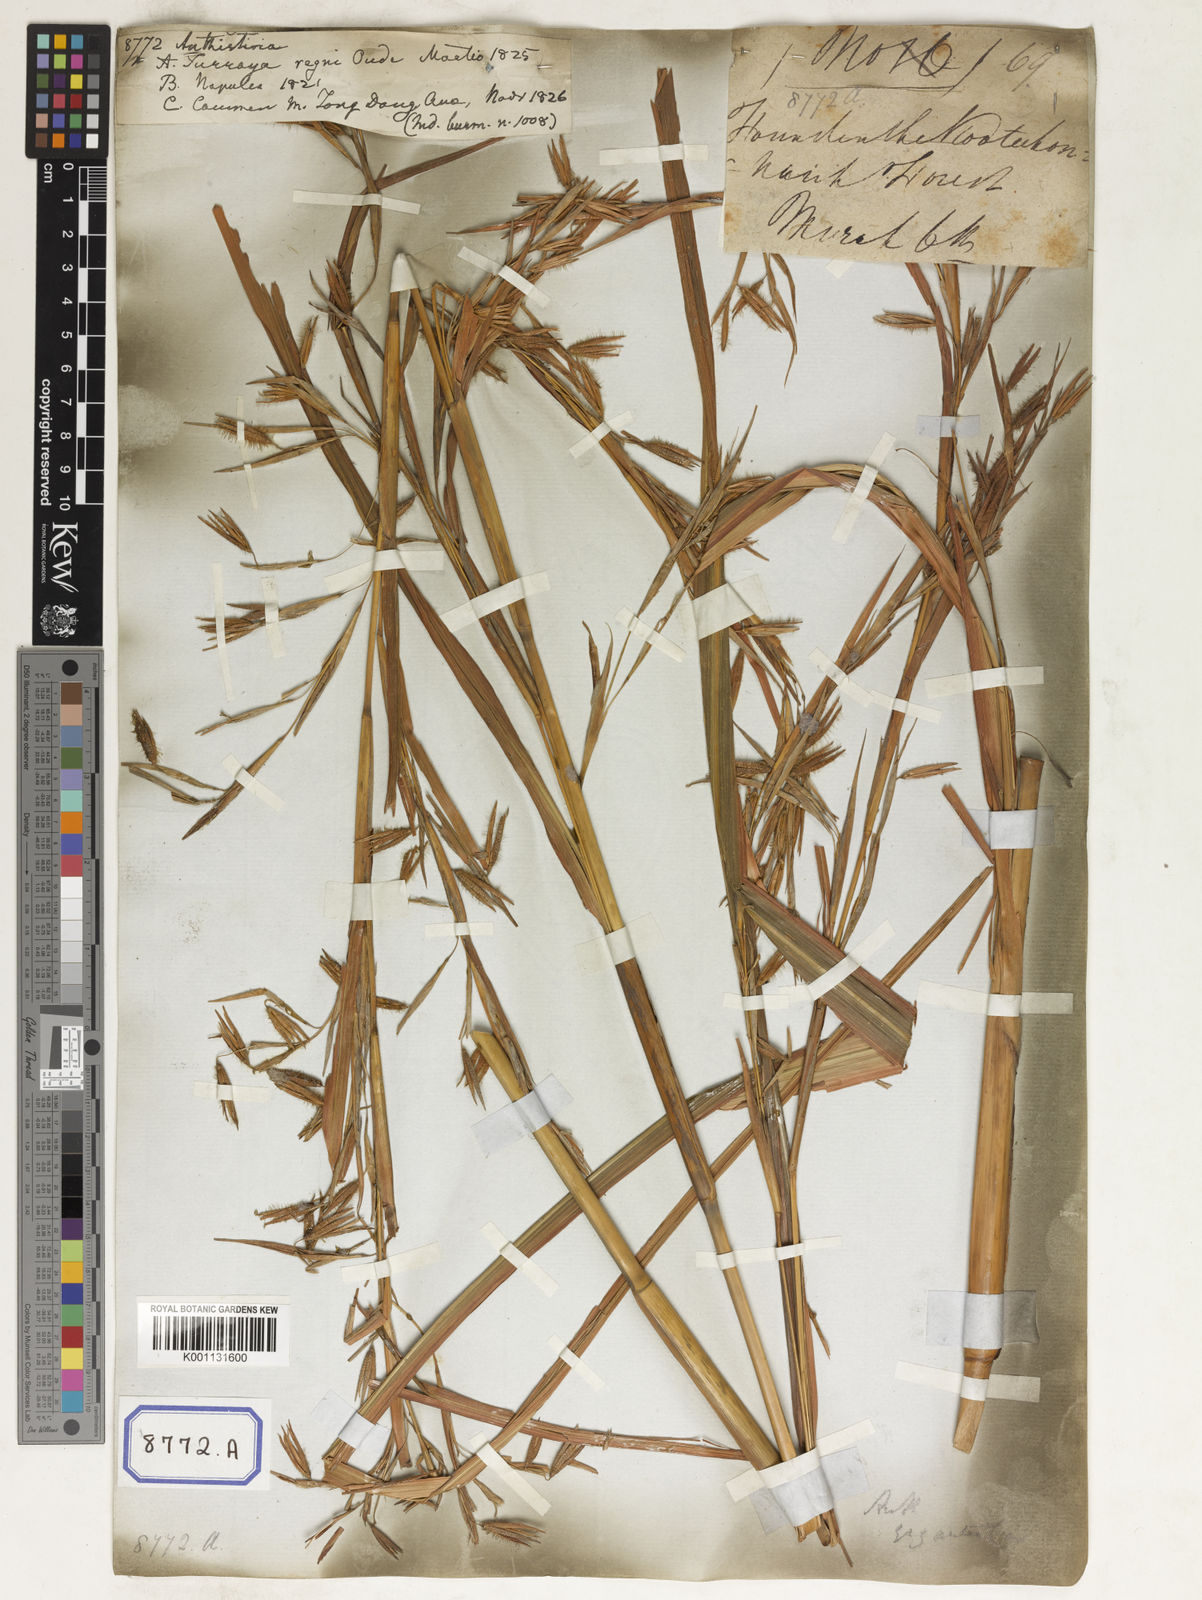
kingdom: Plantae
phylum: Tracheophyta
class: Liliopsida
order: Poales
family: Poaceae
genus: Themeda
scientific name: Themeda
